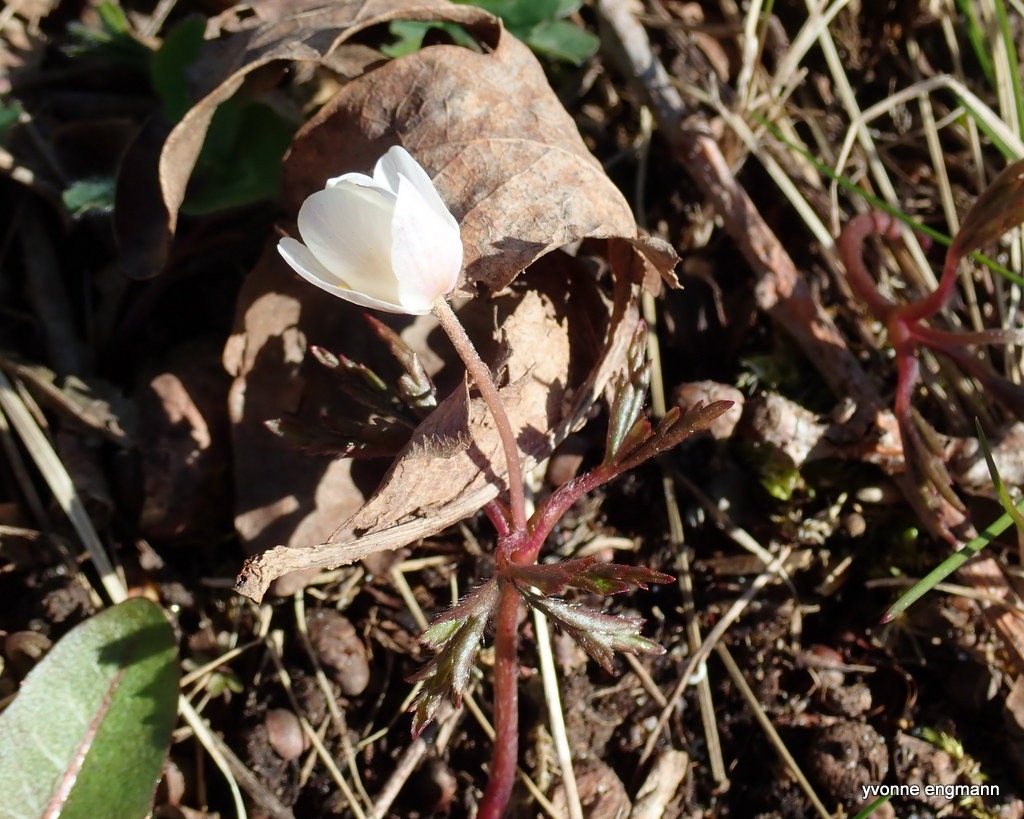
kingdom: Plantae
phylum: Tracheophyta
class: Magnoliopsida
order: Ranunculales
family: Ranunculaceae
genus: Anemone
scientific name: Anemone nemorosa
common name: Hvid anemone
